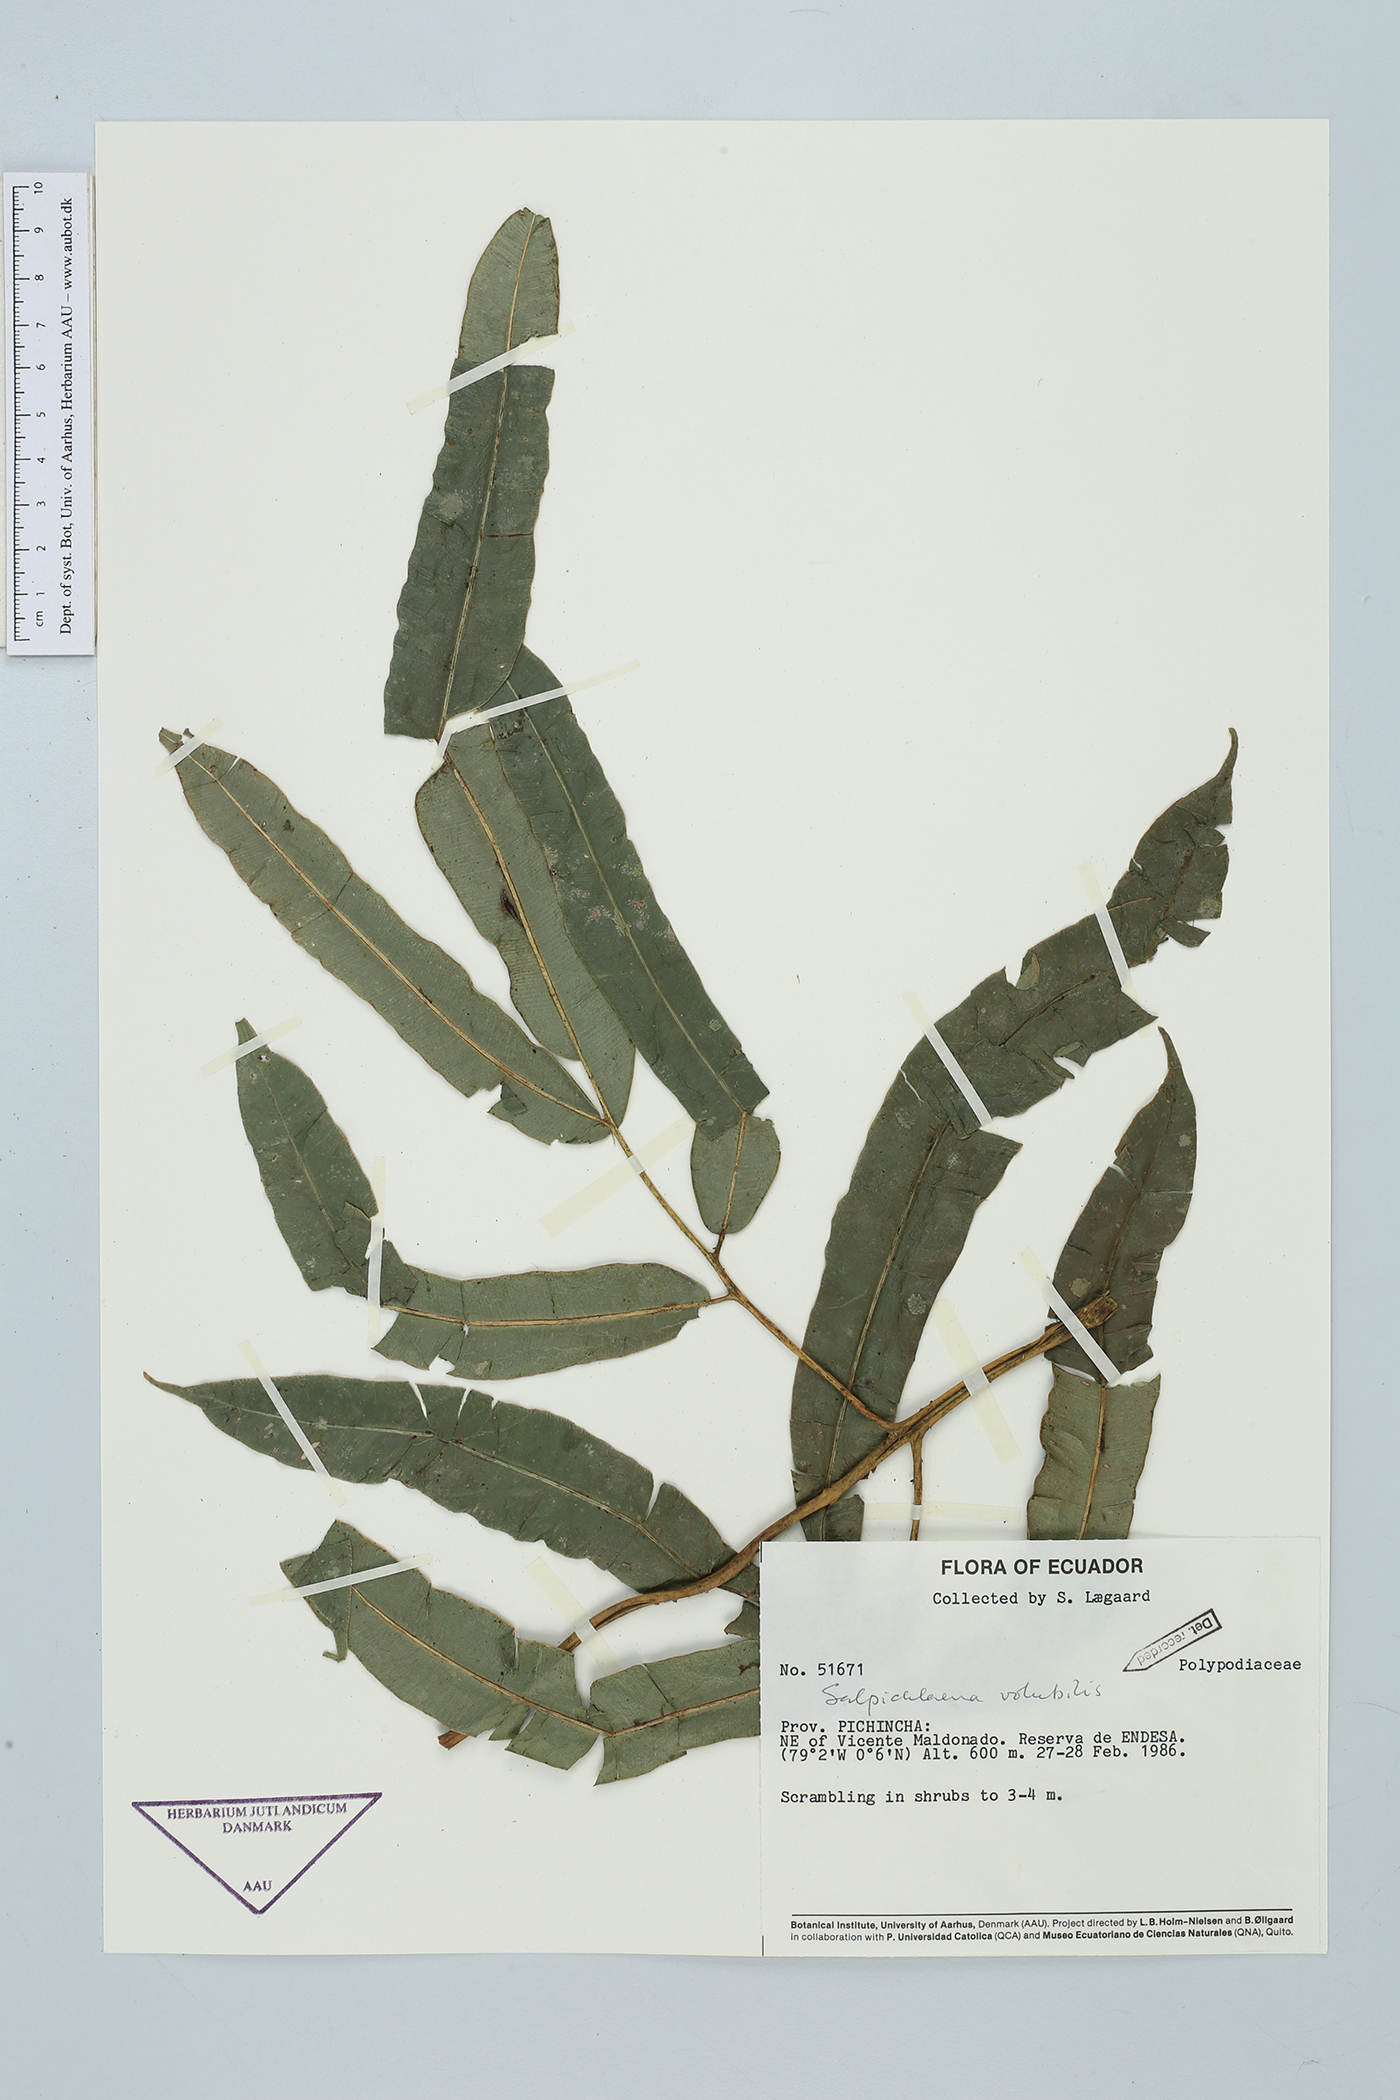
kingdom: Plantae
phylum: Tracheophyta
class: Polypodiopsida
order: Polypodiales
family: Blechnaceae
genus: Salpichlaena
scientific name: Salpichlaena volubilis
